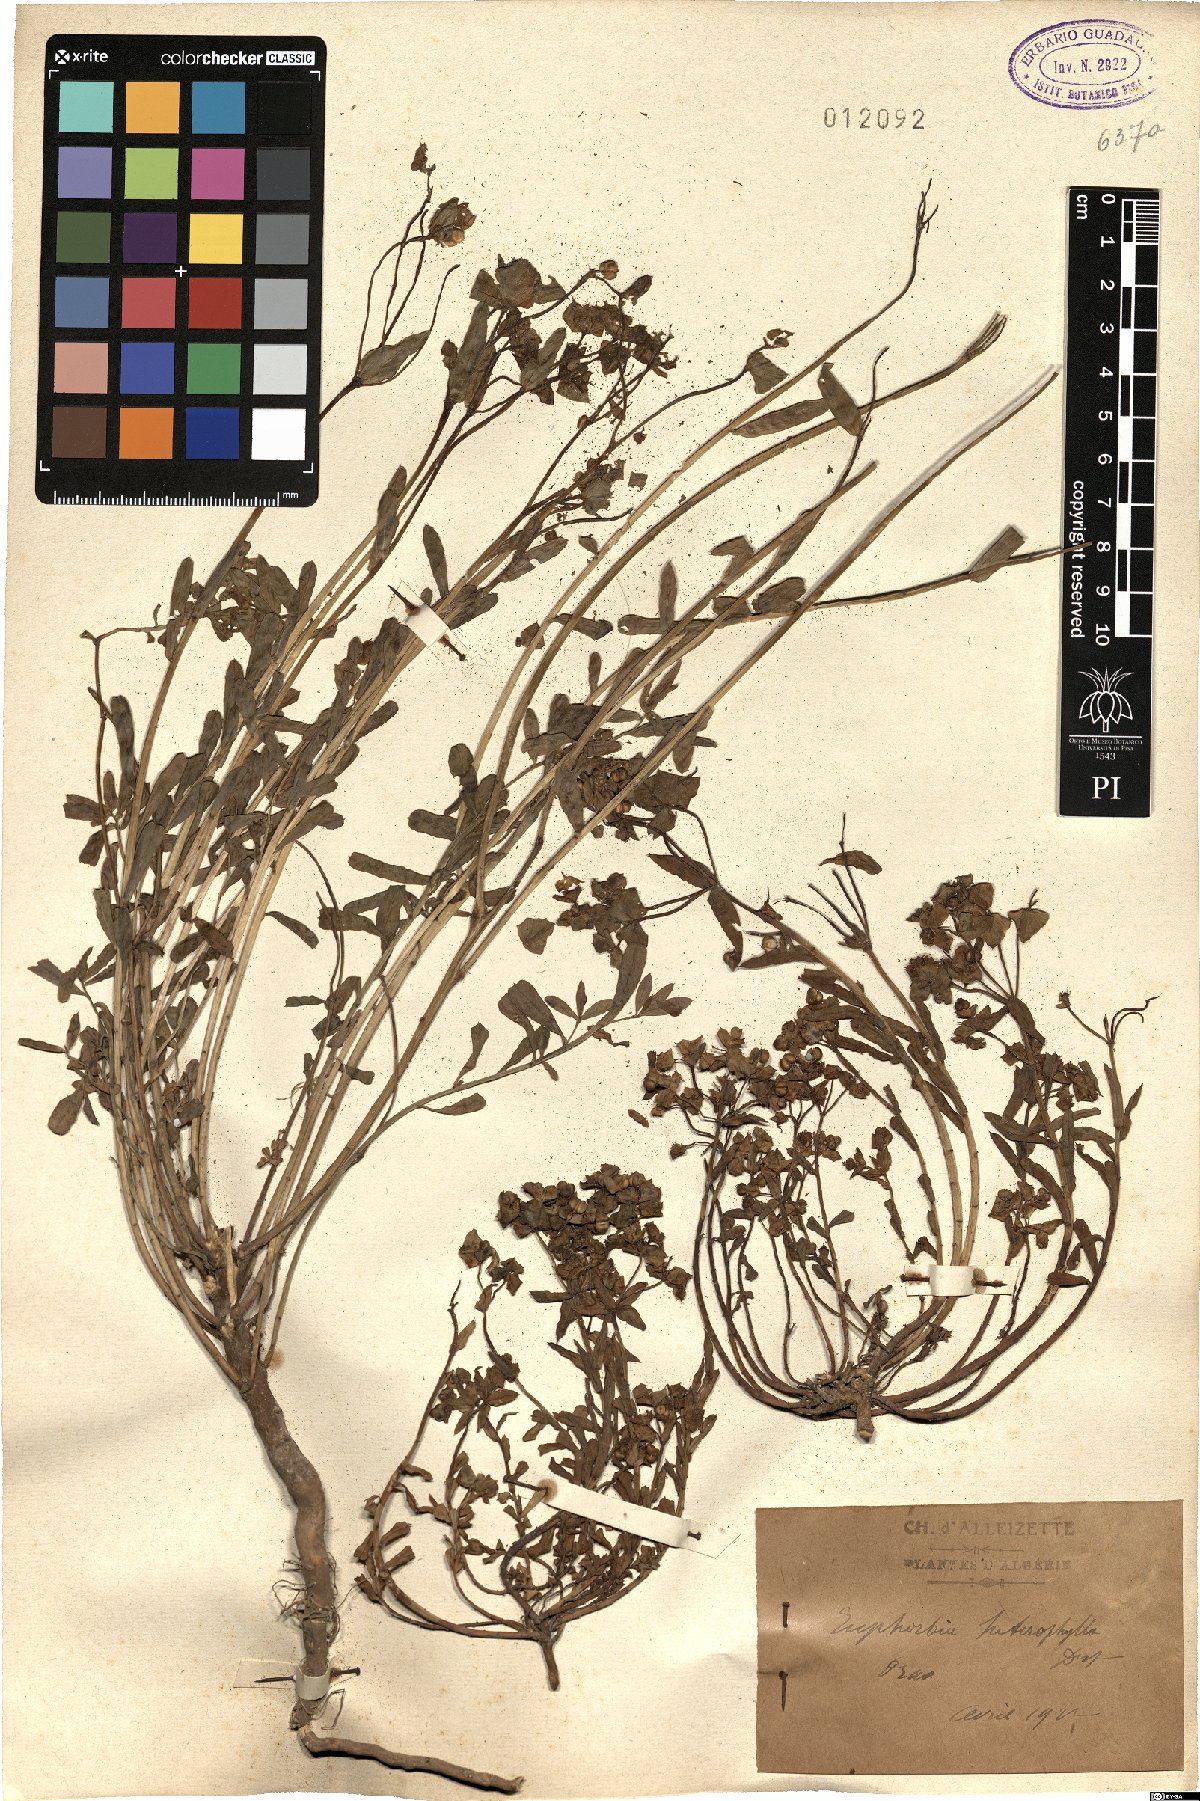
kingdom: Plantae
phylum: Tracheophyta
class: Magnoliopsida
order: Malpighiales
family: Euphorbiaceae
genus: Euphorbia
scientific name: Euphorbia terracina
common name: Geraldton carnation weed
